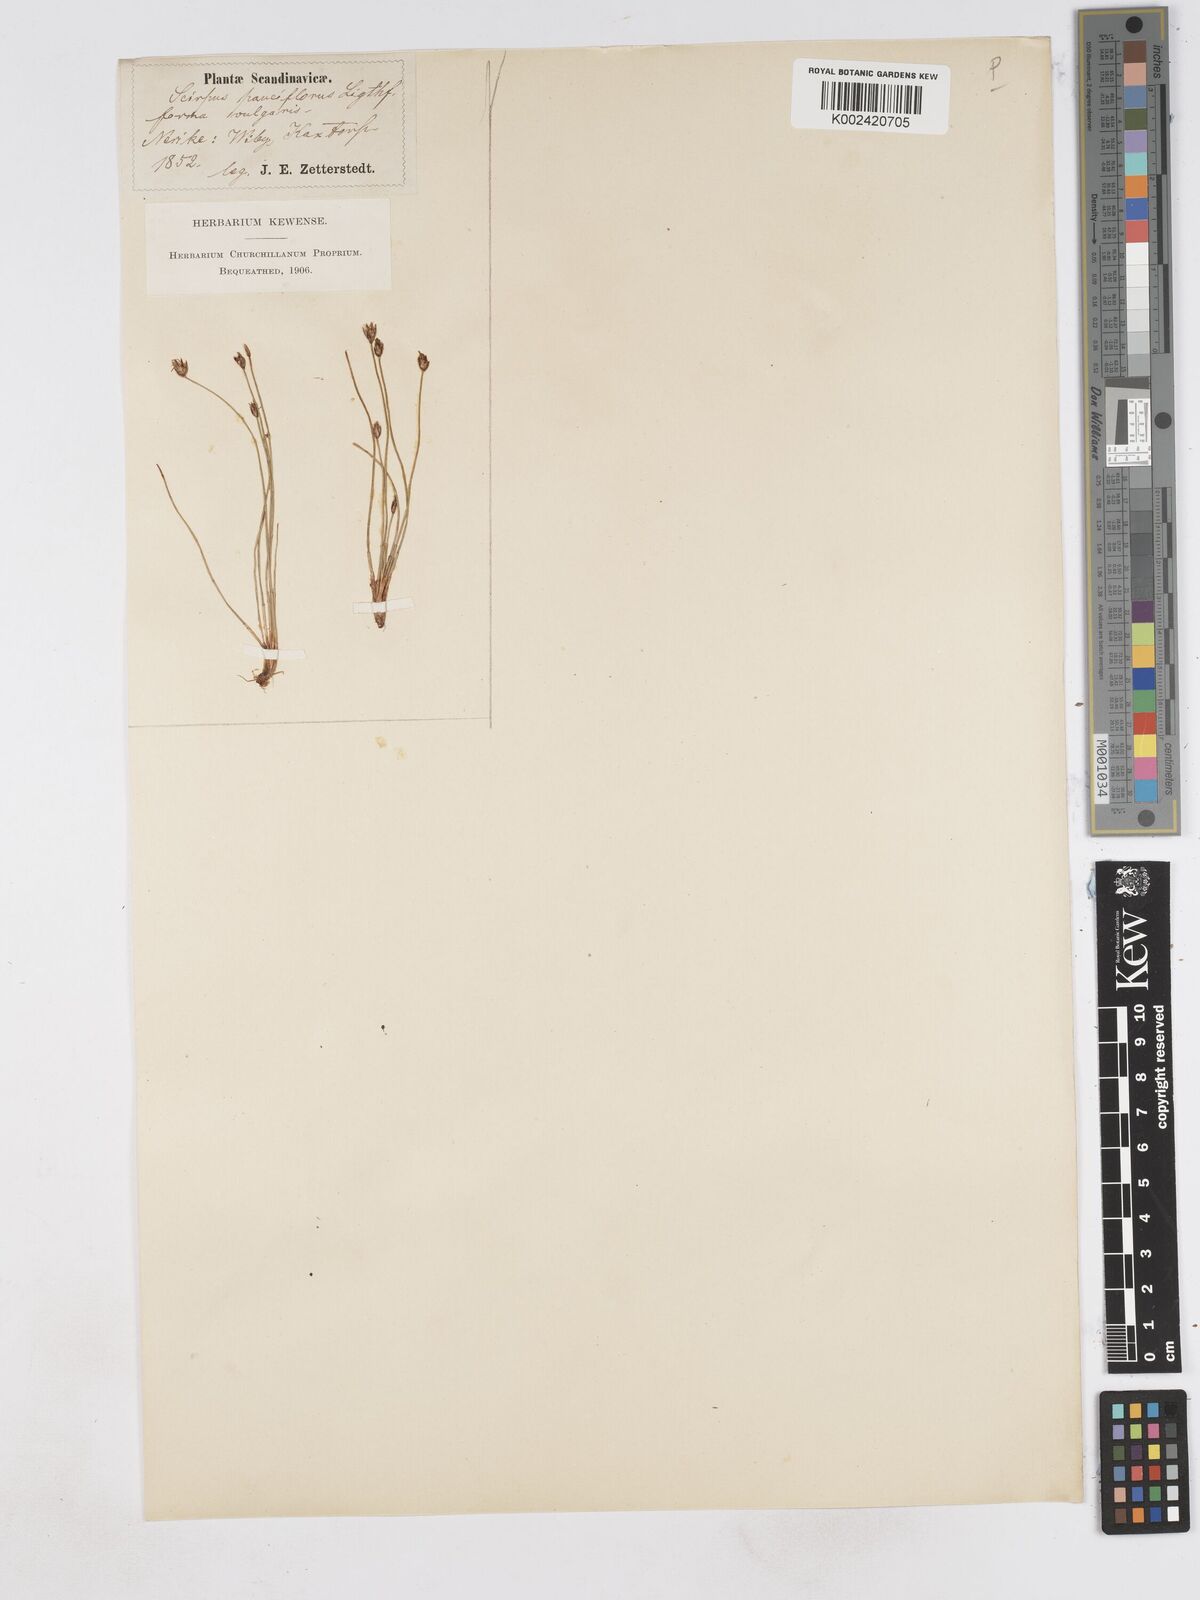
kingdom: Plantae
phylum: Tracheophyta
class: Liliopsida
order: Poales
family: Cyperaceae
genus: Eleocharis
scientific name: Eleocharis quinqueflora
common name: Few-flowered spike-rush
